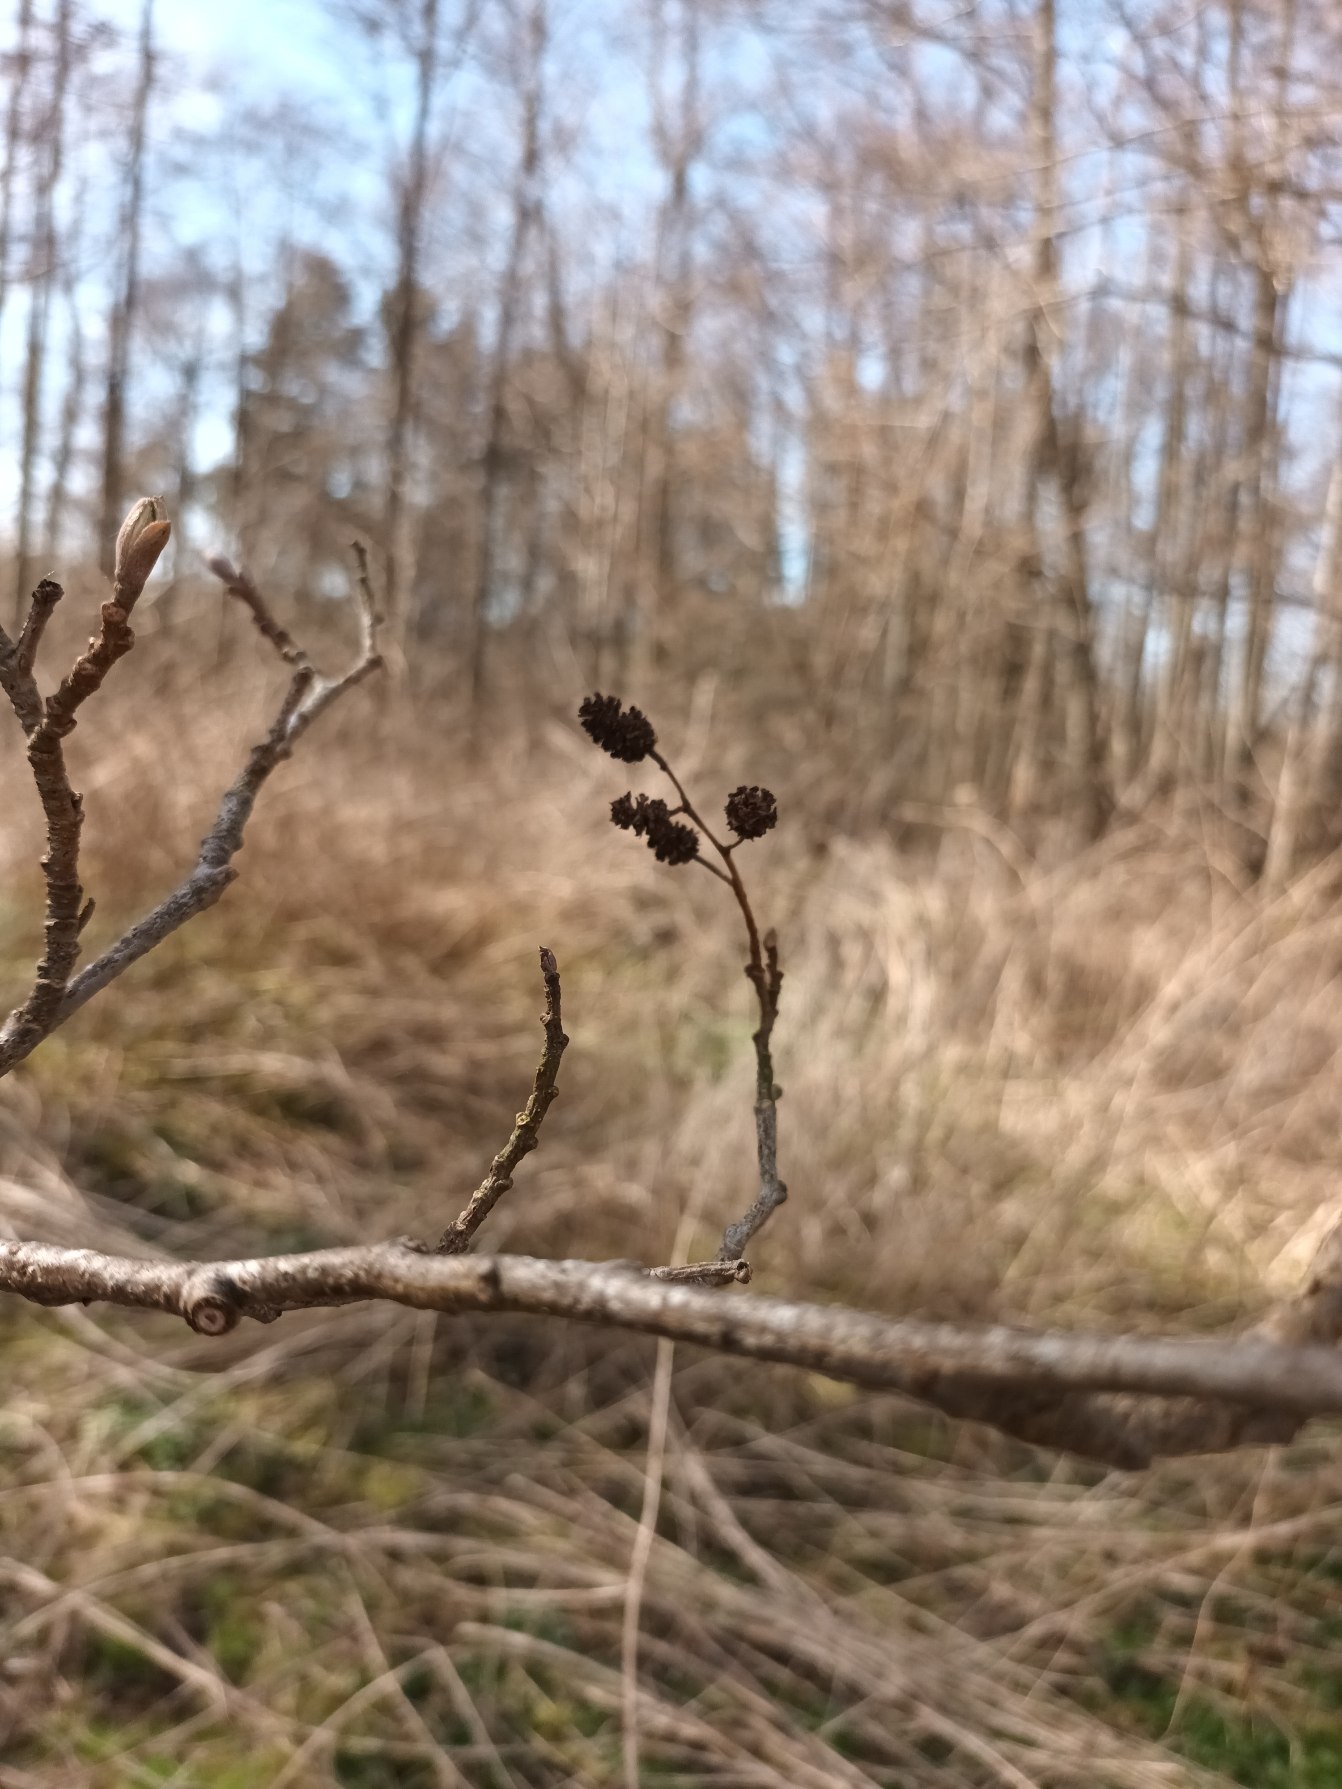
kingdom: Plantae
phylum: Tracheophyta
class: Magnoliopsida
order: Fagales
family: Betulaceae
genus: Alnus
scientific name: Alnus glutinosa
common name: Rød-el
